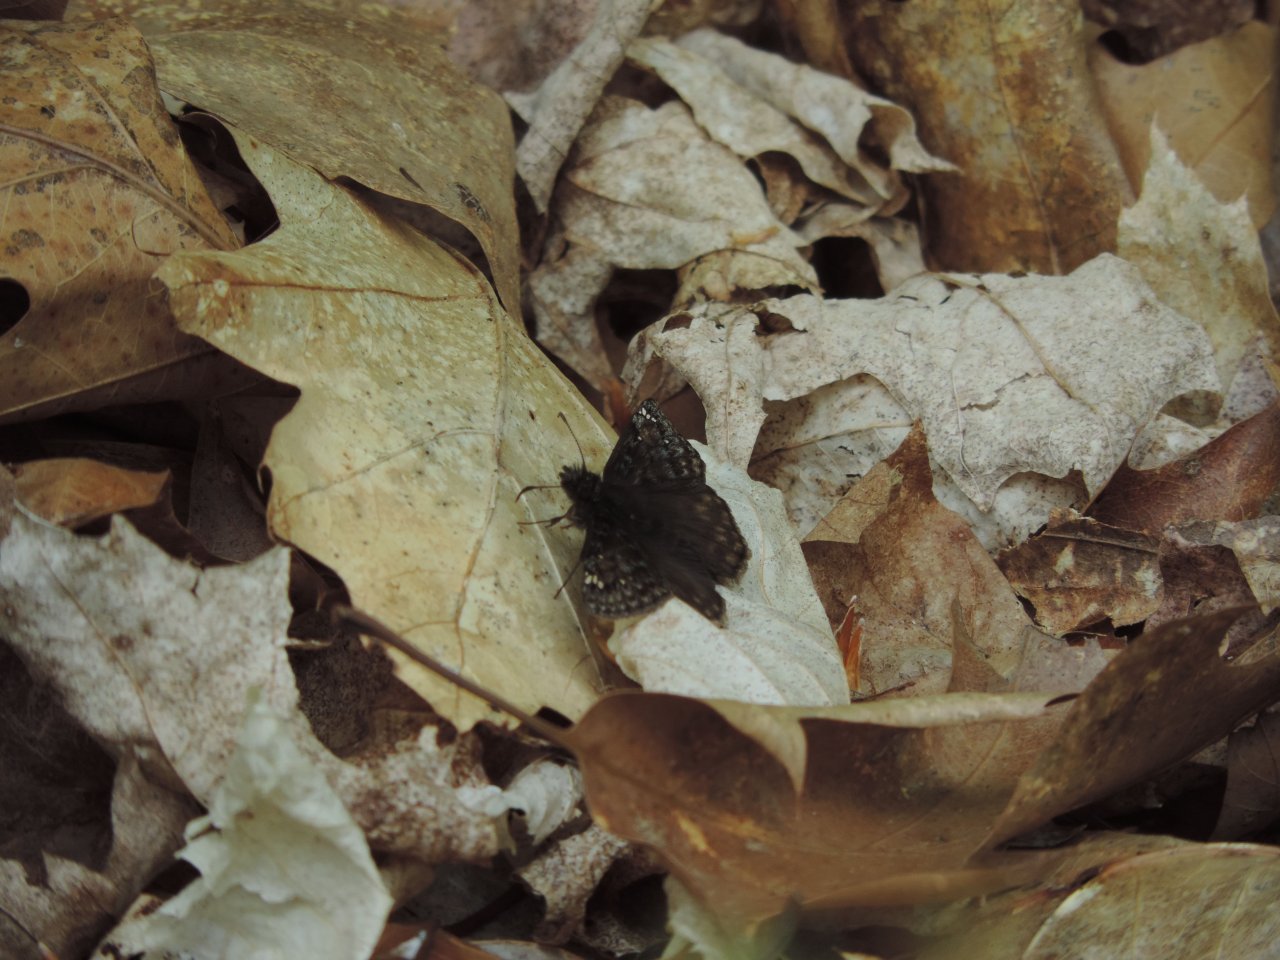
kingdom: Animalia
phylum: Arthropoda
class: Insecta
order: Lepidoptera
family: Hesperiidae
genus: Gesta
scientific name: Gesta
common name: Juvenal's Duskywing
